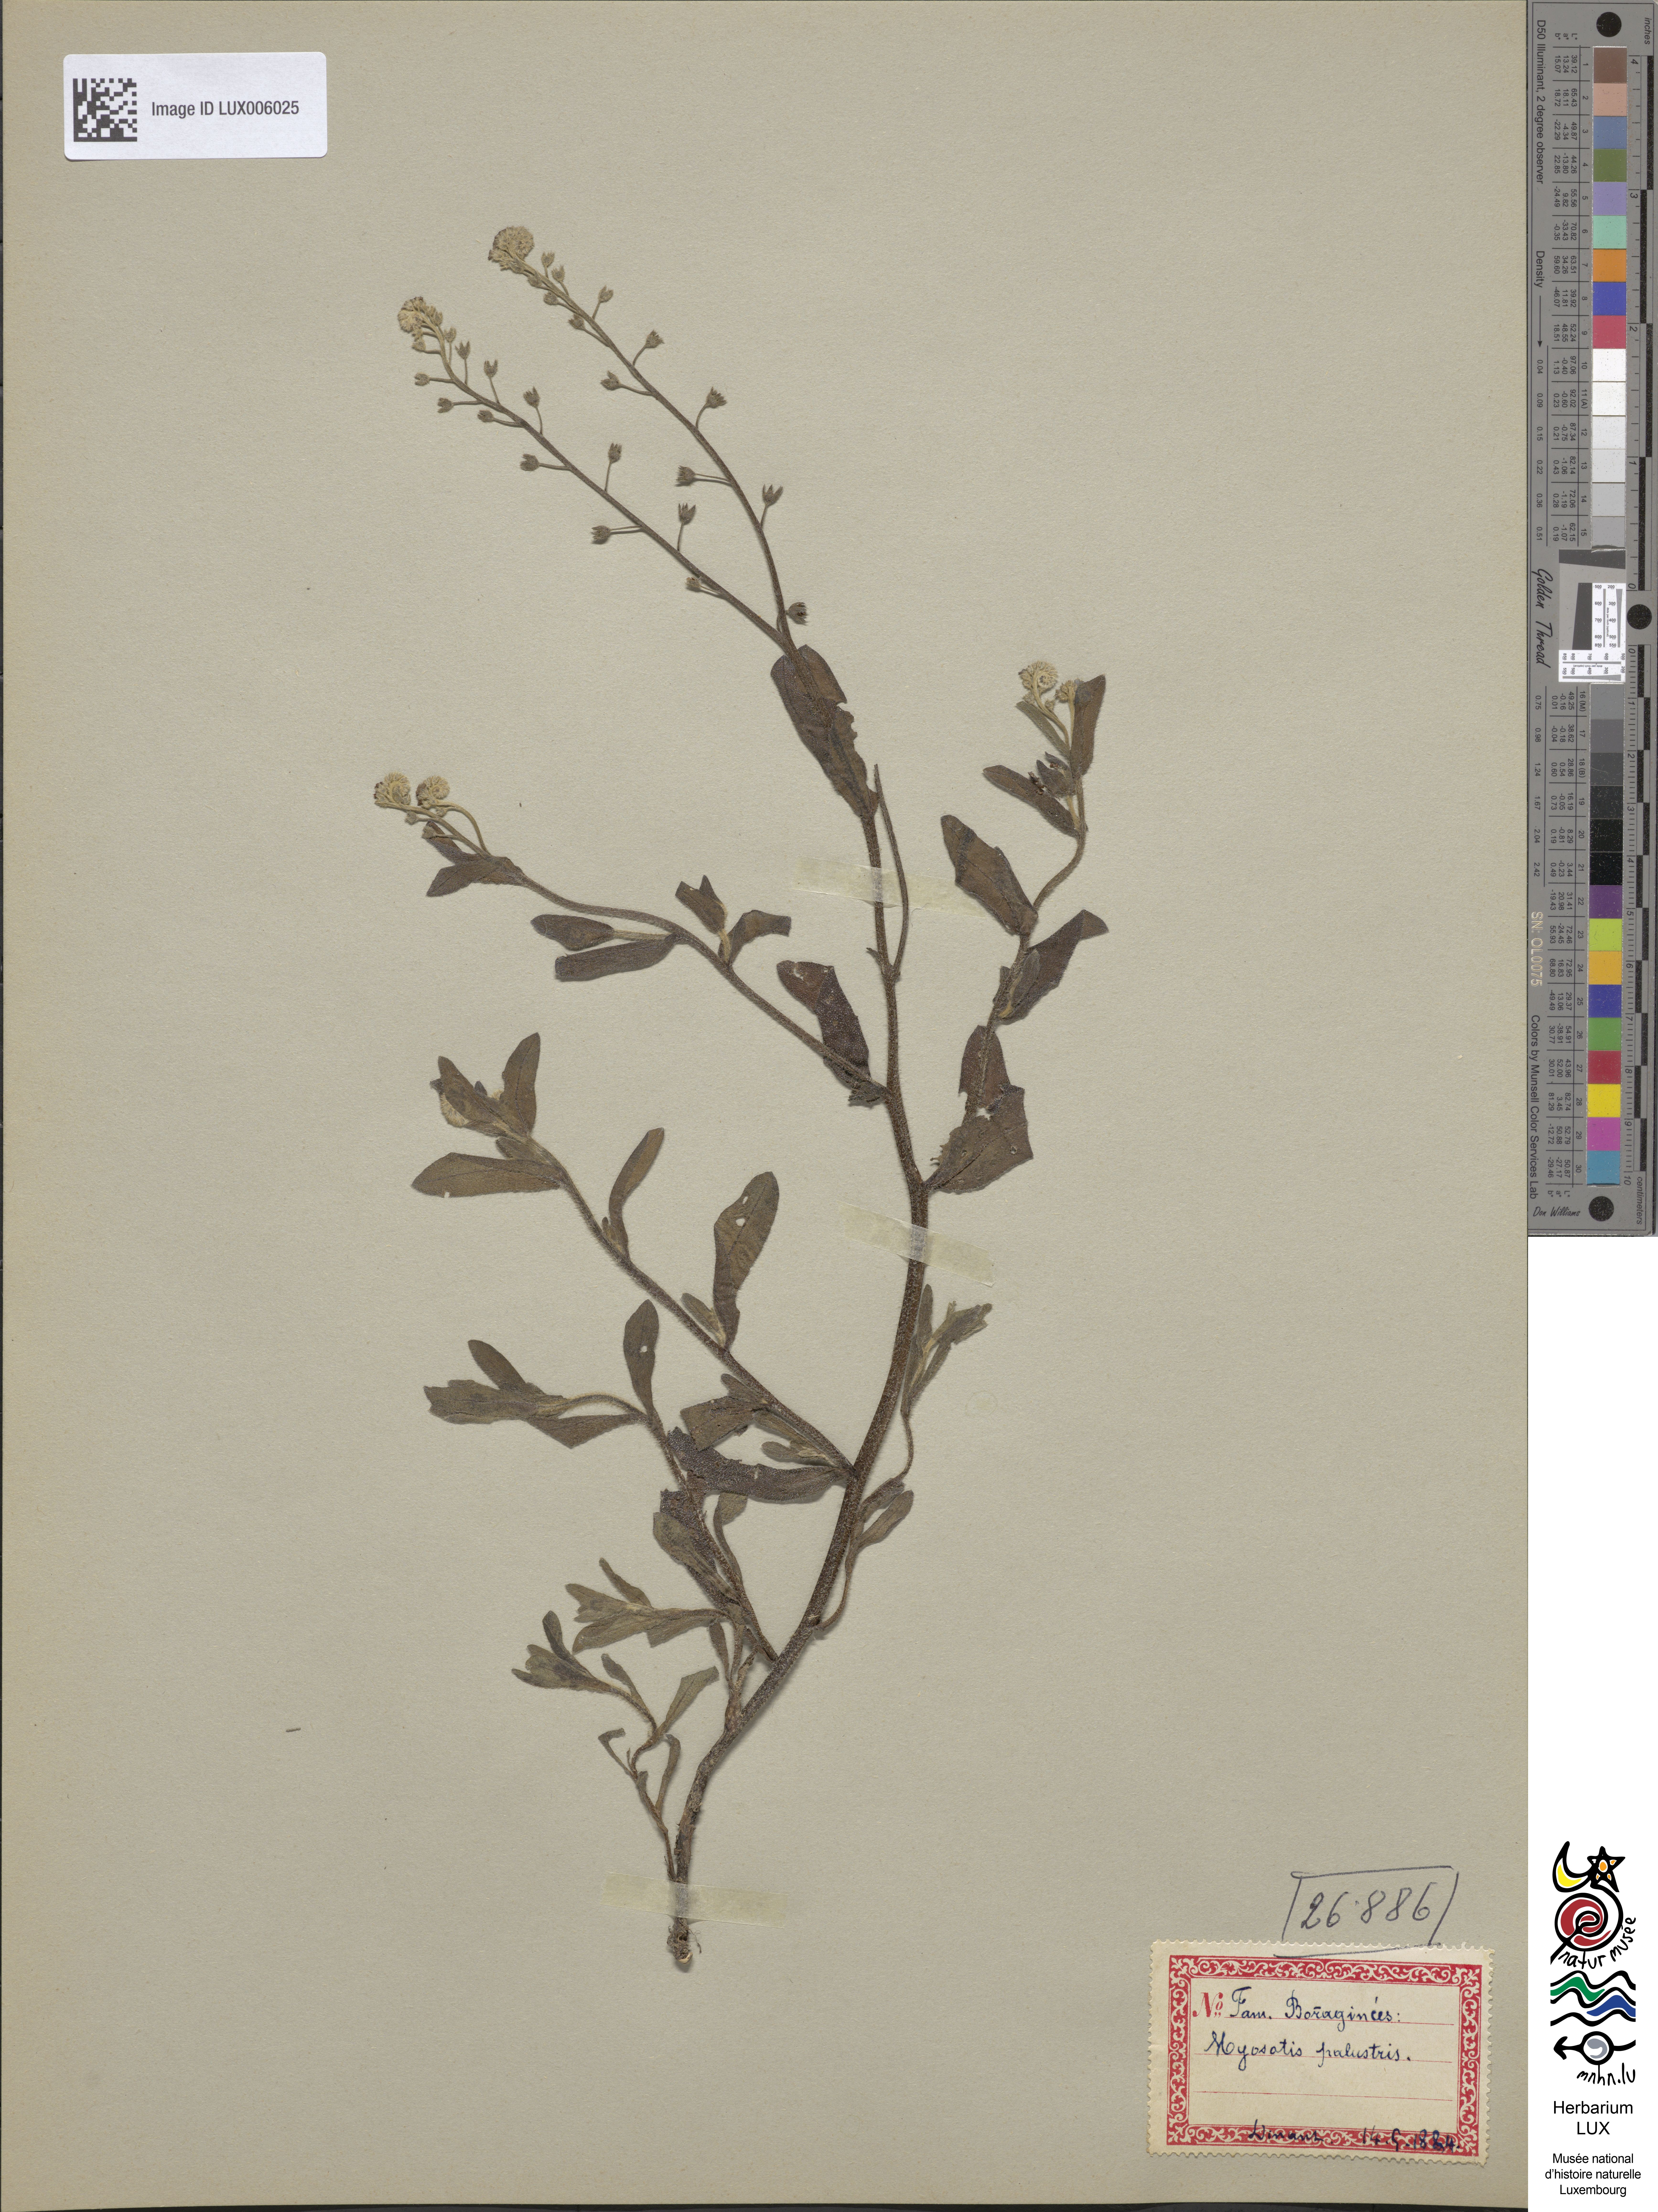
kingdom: Plantae
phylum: Tracheophyta
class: Magnoliopsida
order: Boraginales
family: Boraginaceae
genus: Myosotis
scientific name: Myosotis scorpioides
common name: Water forget-me-not
